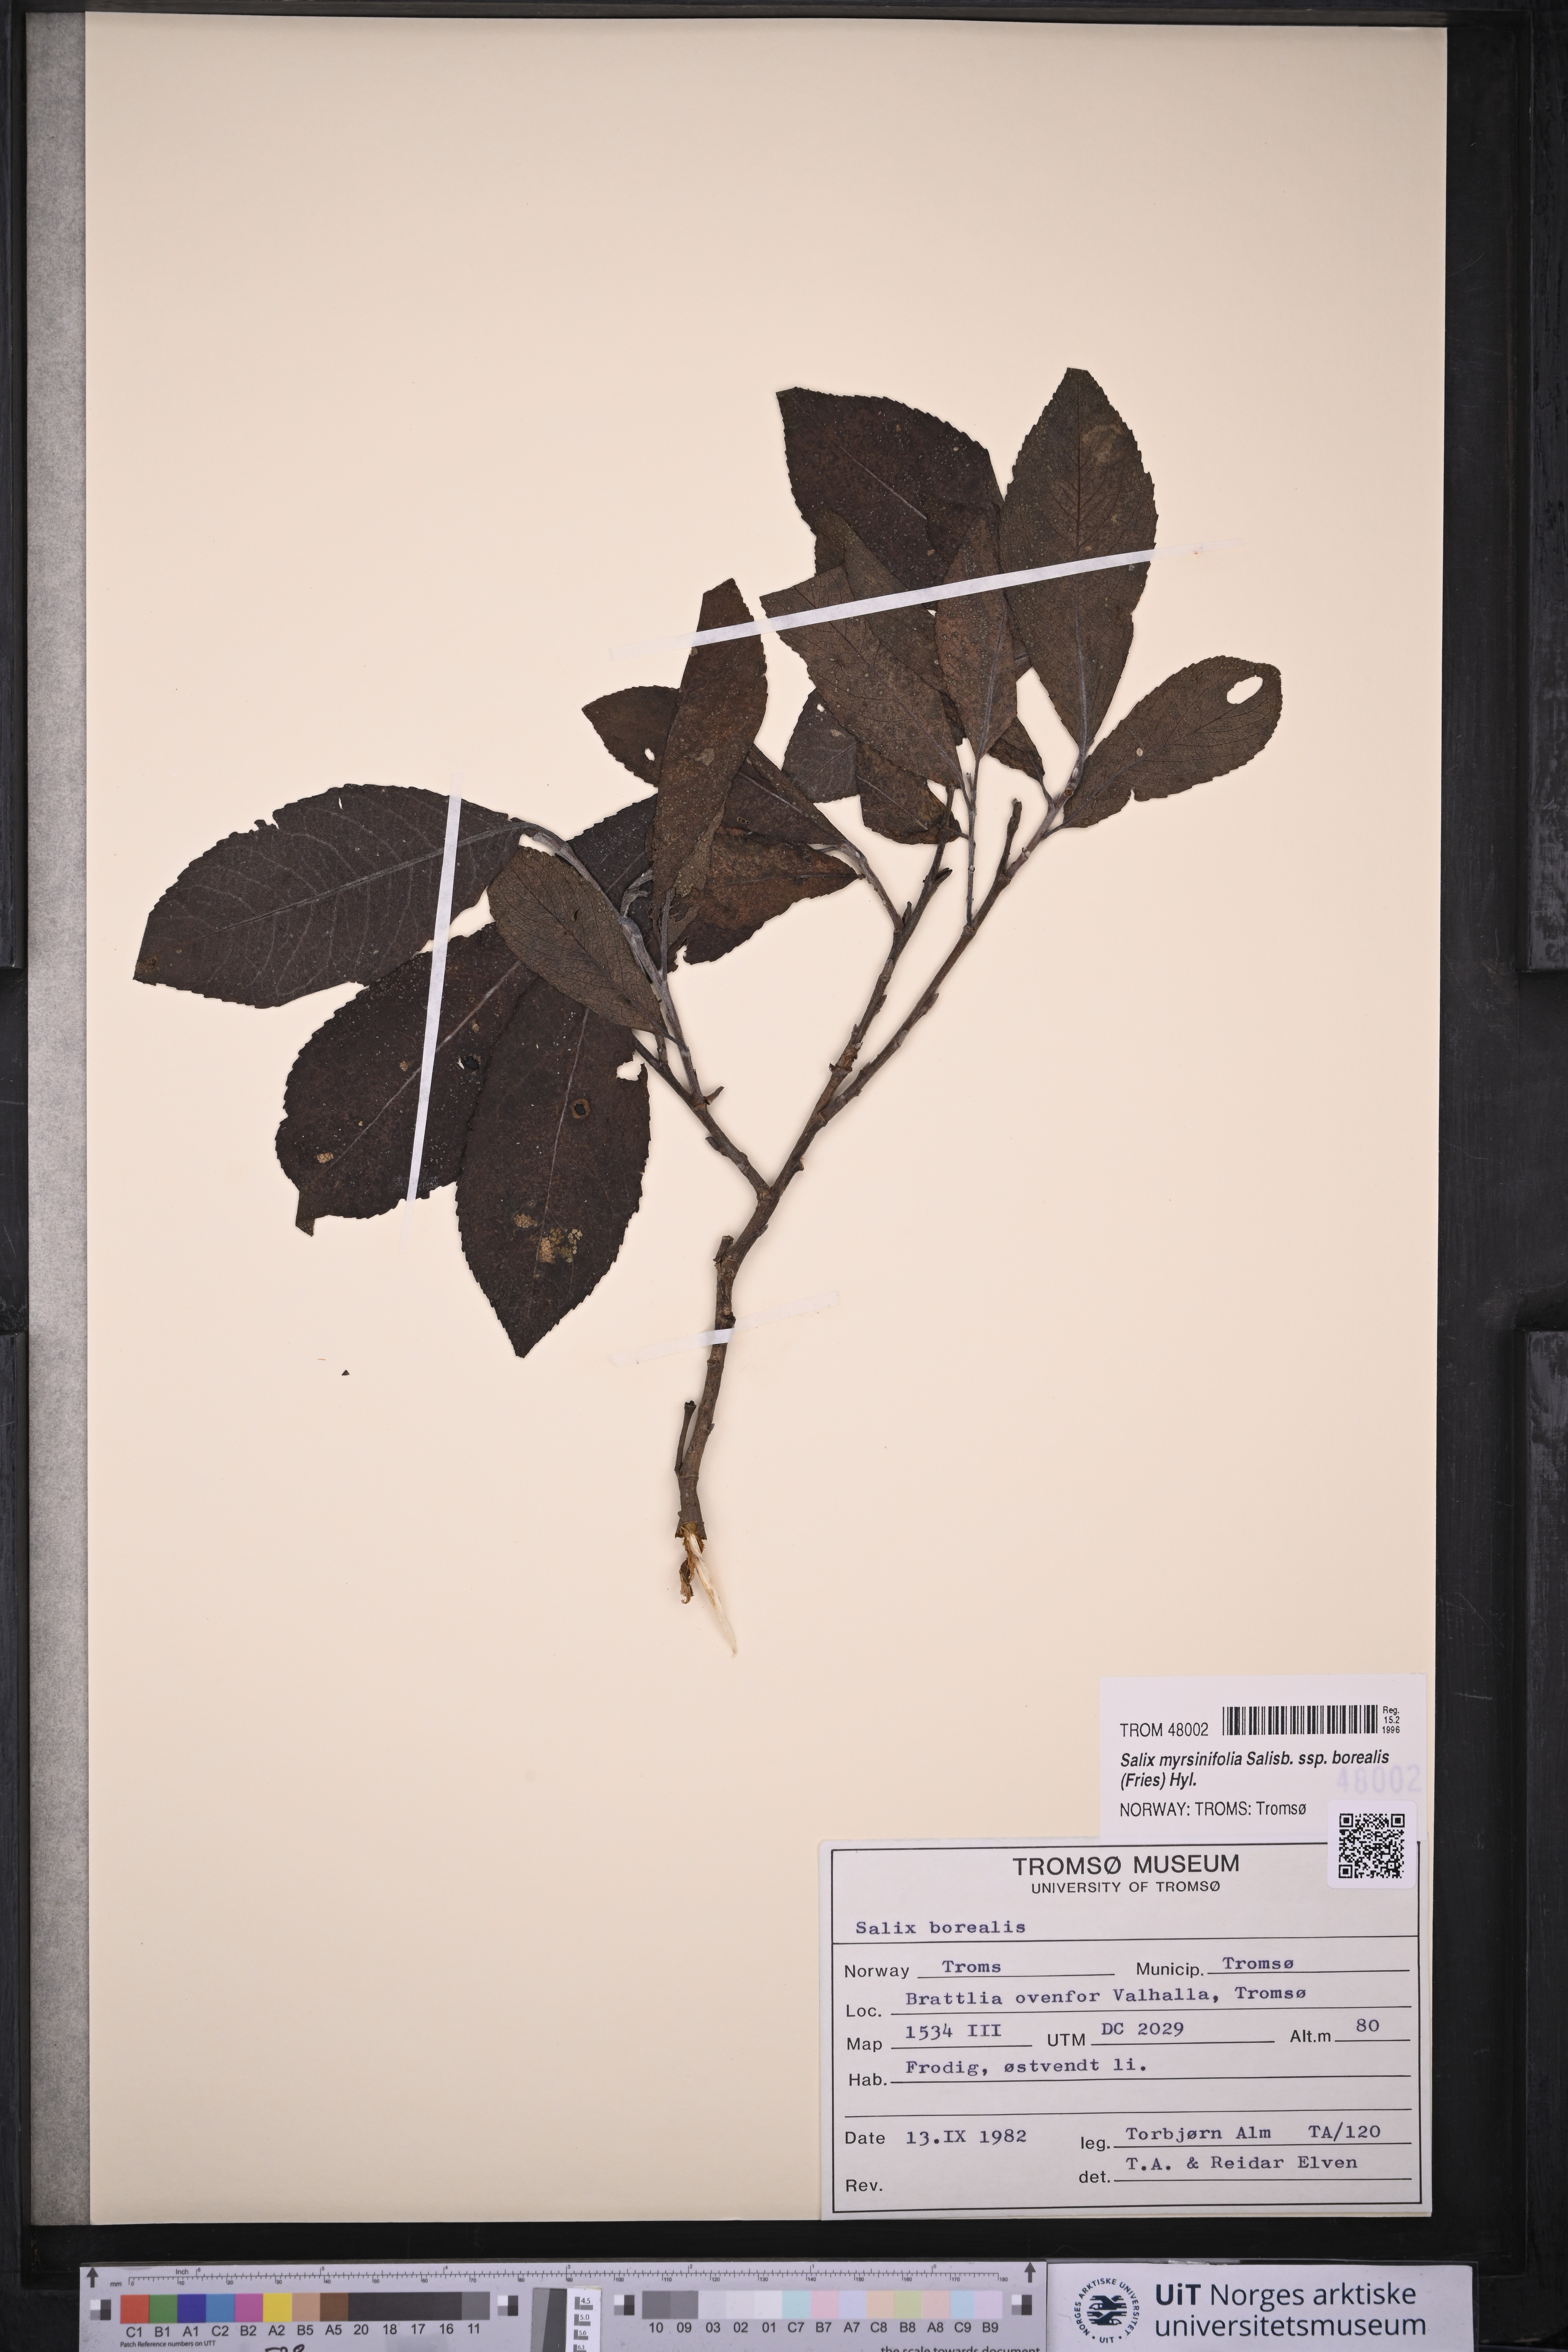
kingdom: Plantae
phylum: Tracheophyta
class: Magnoliopsida
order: Malpighiales
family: Salicaceae
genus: Salix
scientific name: Salix myrsinifolia
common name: Dark-leaved willow
